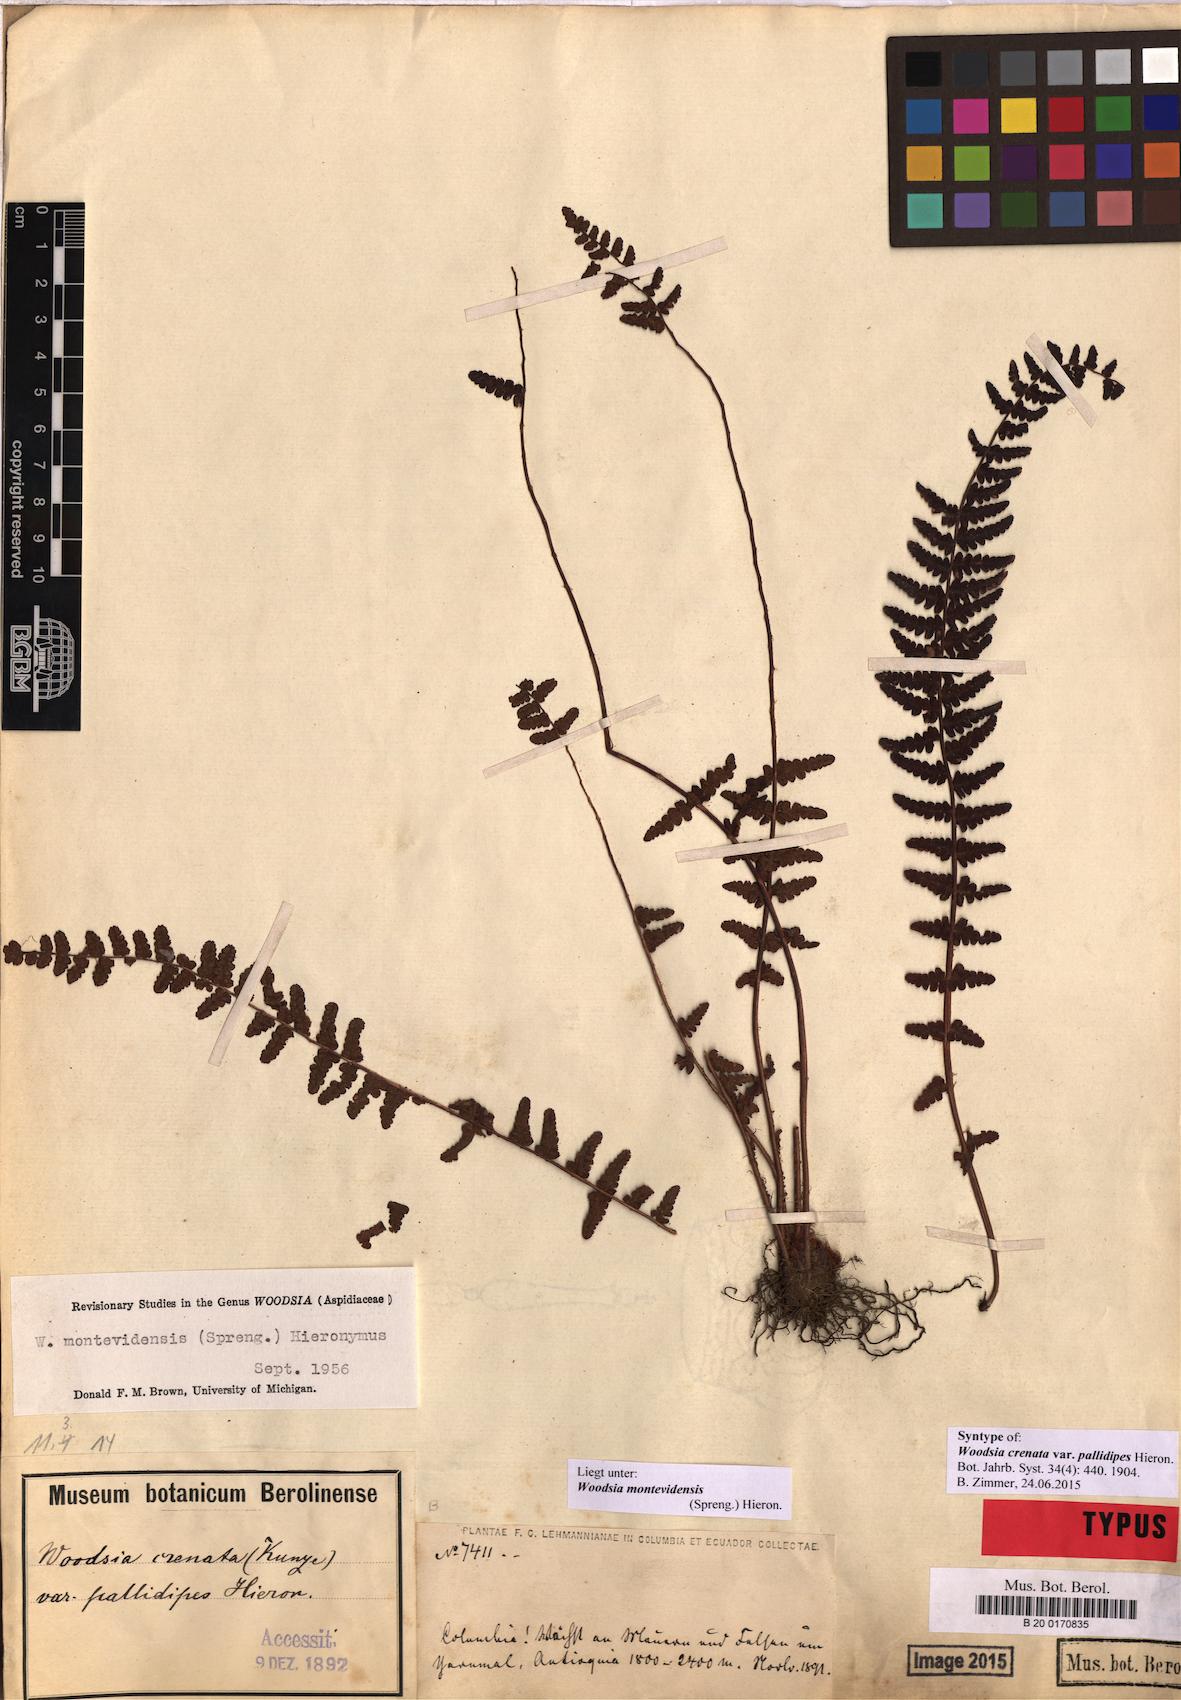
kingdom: Plantae
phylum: Tracheophyta
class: Polypodiopsida
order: Polypodiales
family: Woodsiaceae
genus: Physematium
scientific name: Physematium montevidense
